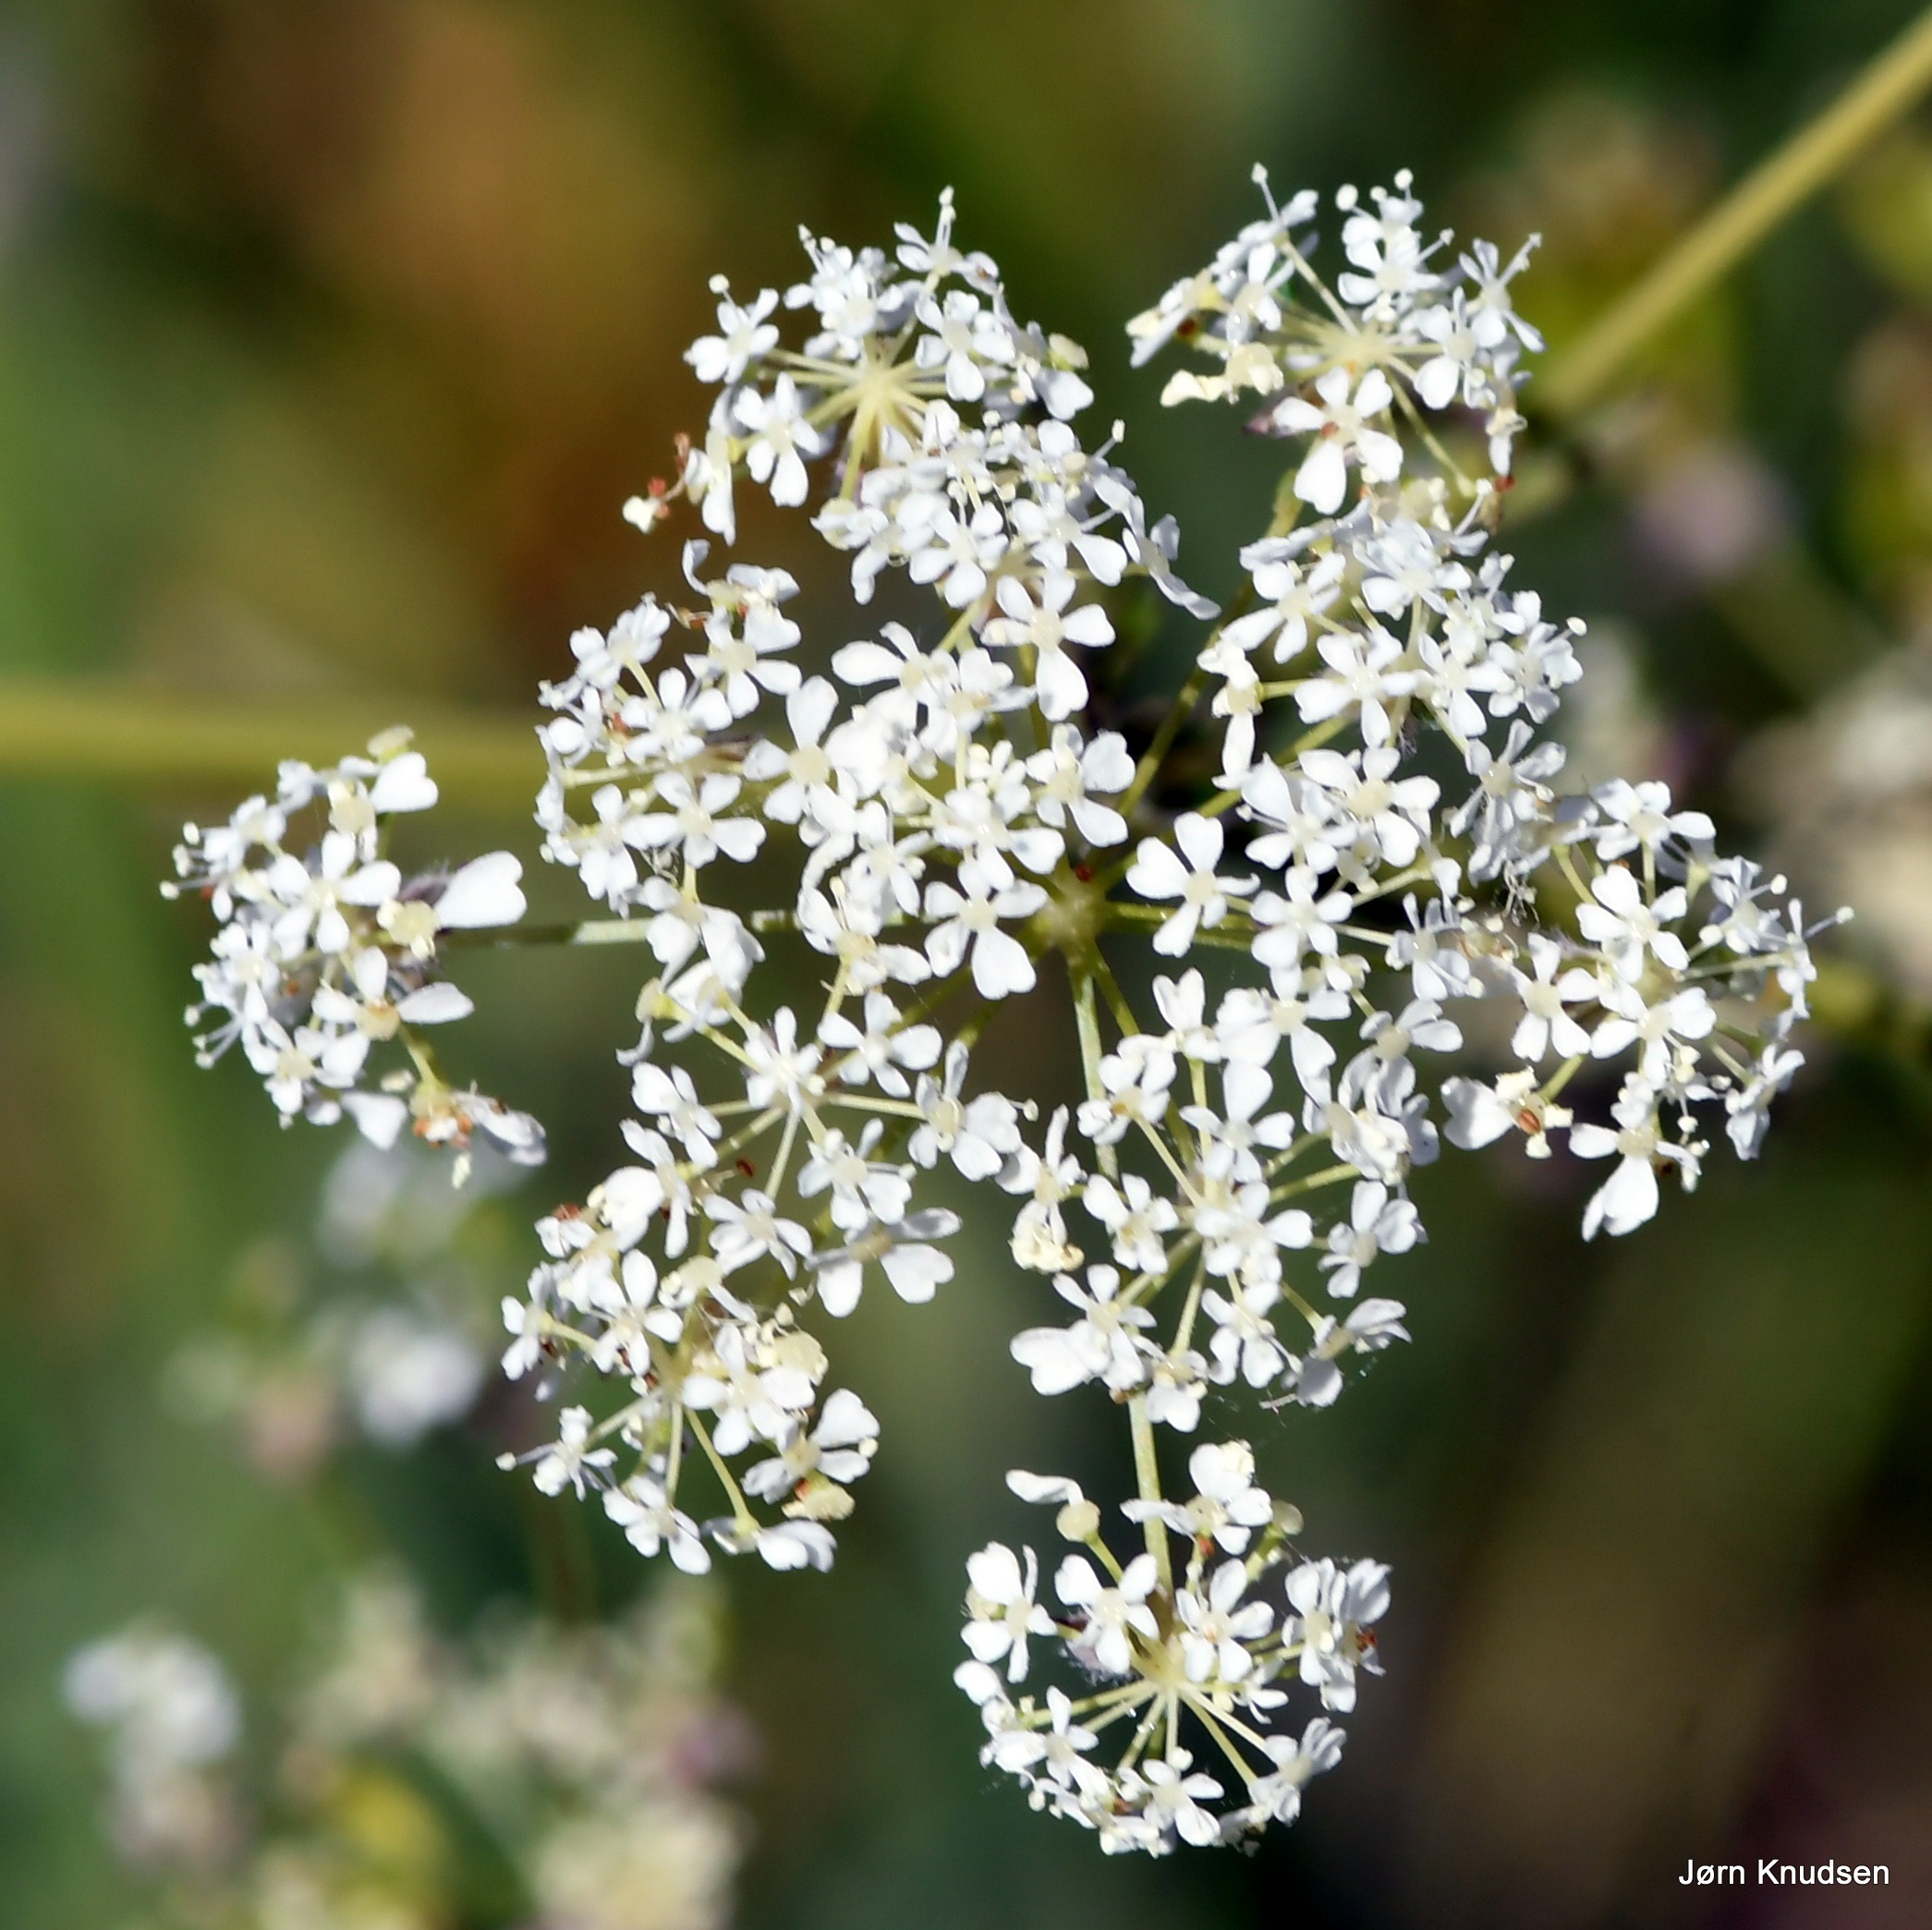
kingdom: Plantae
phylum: Tracheophyta
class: Magnoliopsida
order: Apiales
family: Apiaceae
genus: Anthriscus
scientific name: Anthriscus sylvestris
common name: Vild kørvel
